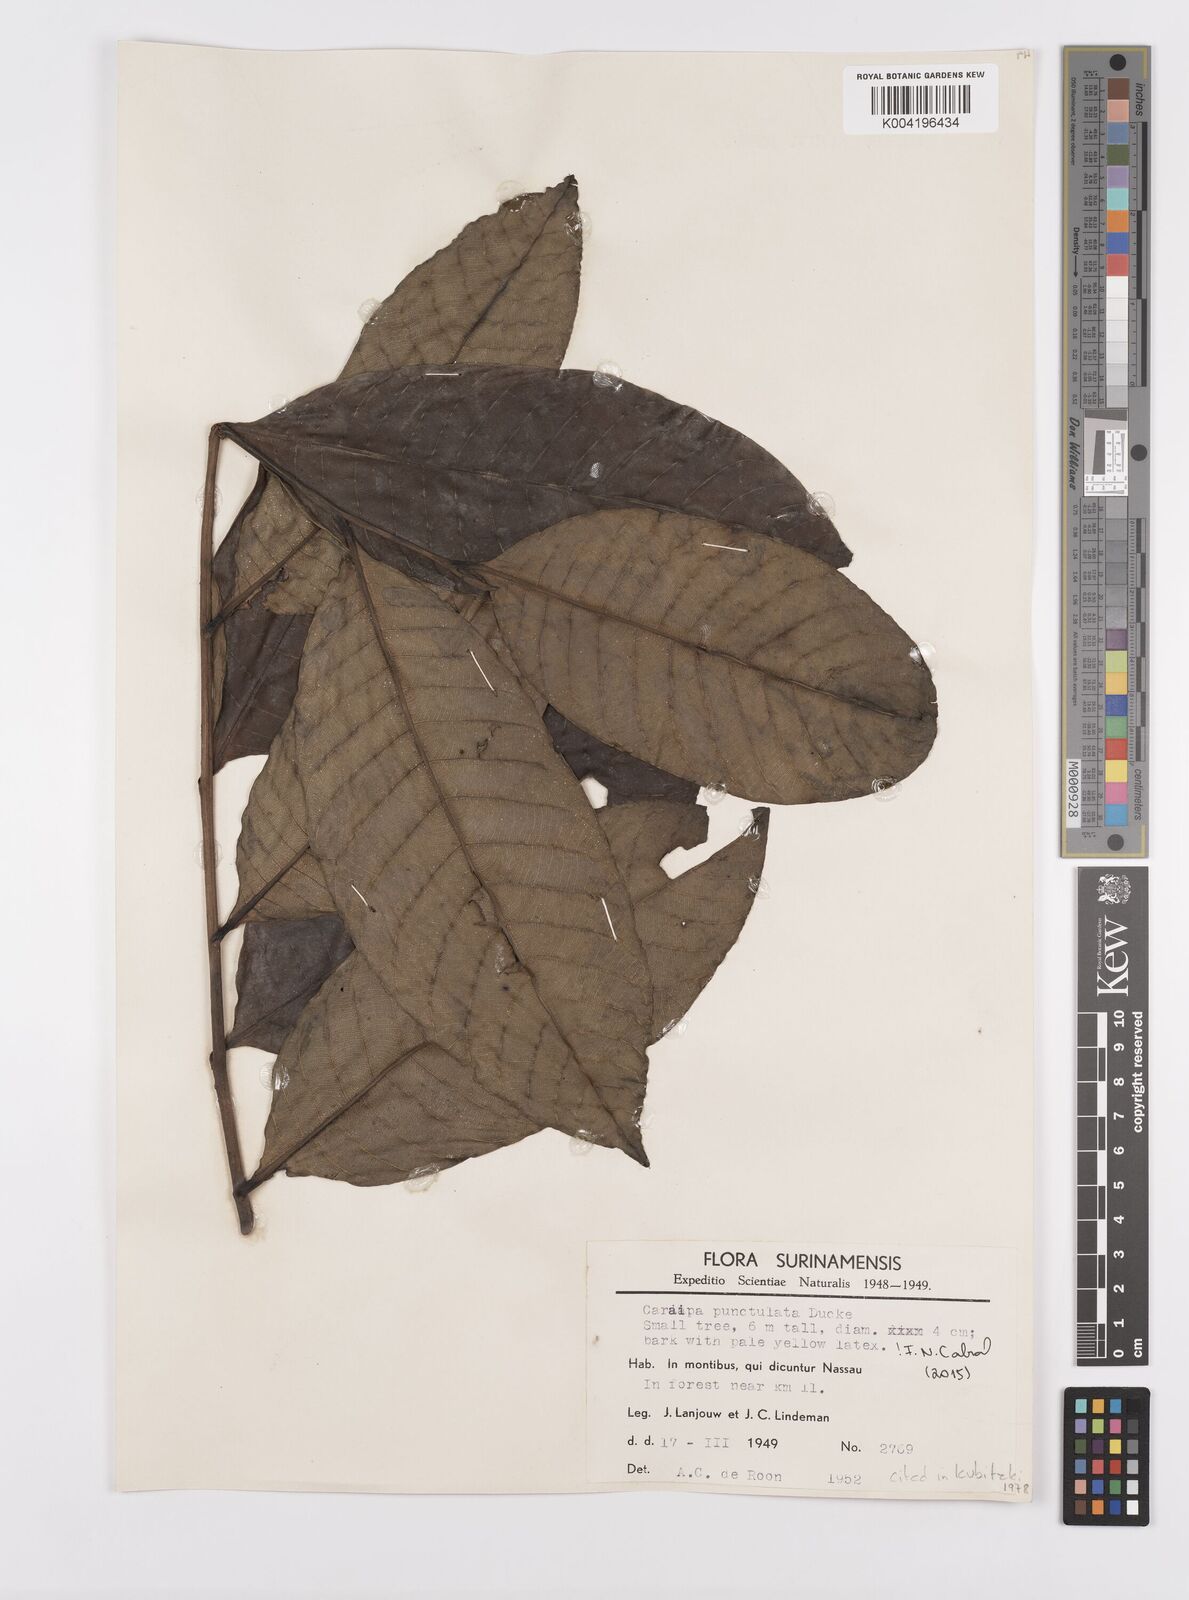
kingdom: Plantae
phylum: Tracheophyta
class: Magnoliopsida
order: Malpighiales
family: Calophyllaceae
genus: Caraipa
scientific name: Caraipa punctulata
